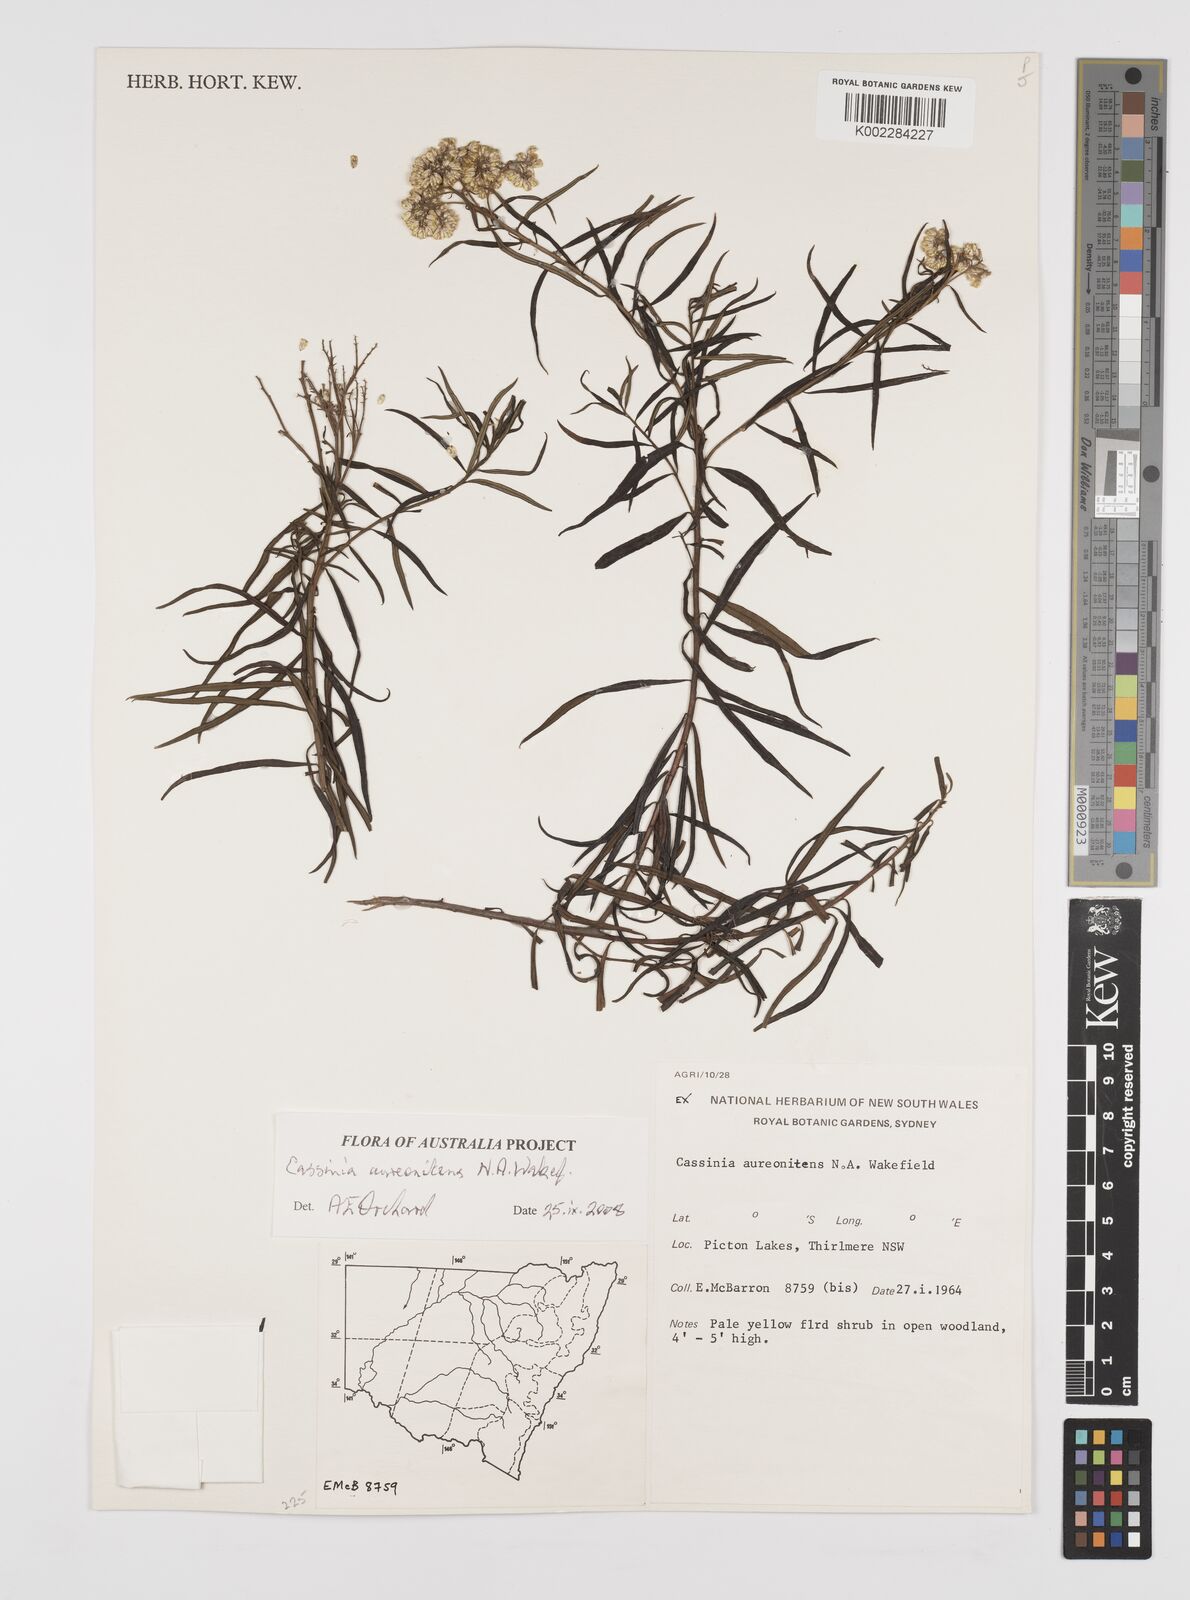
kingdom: Plantae
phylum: Tracheophyta
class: Magnoliopsida
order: Asterales
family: Asteraceae
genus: Cassinia
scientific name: Cassinia aureonitens
